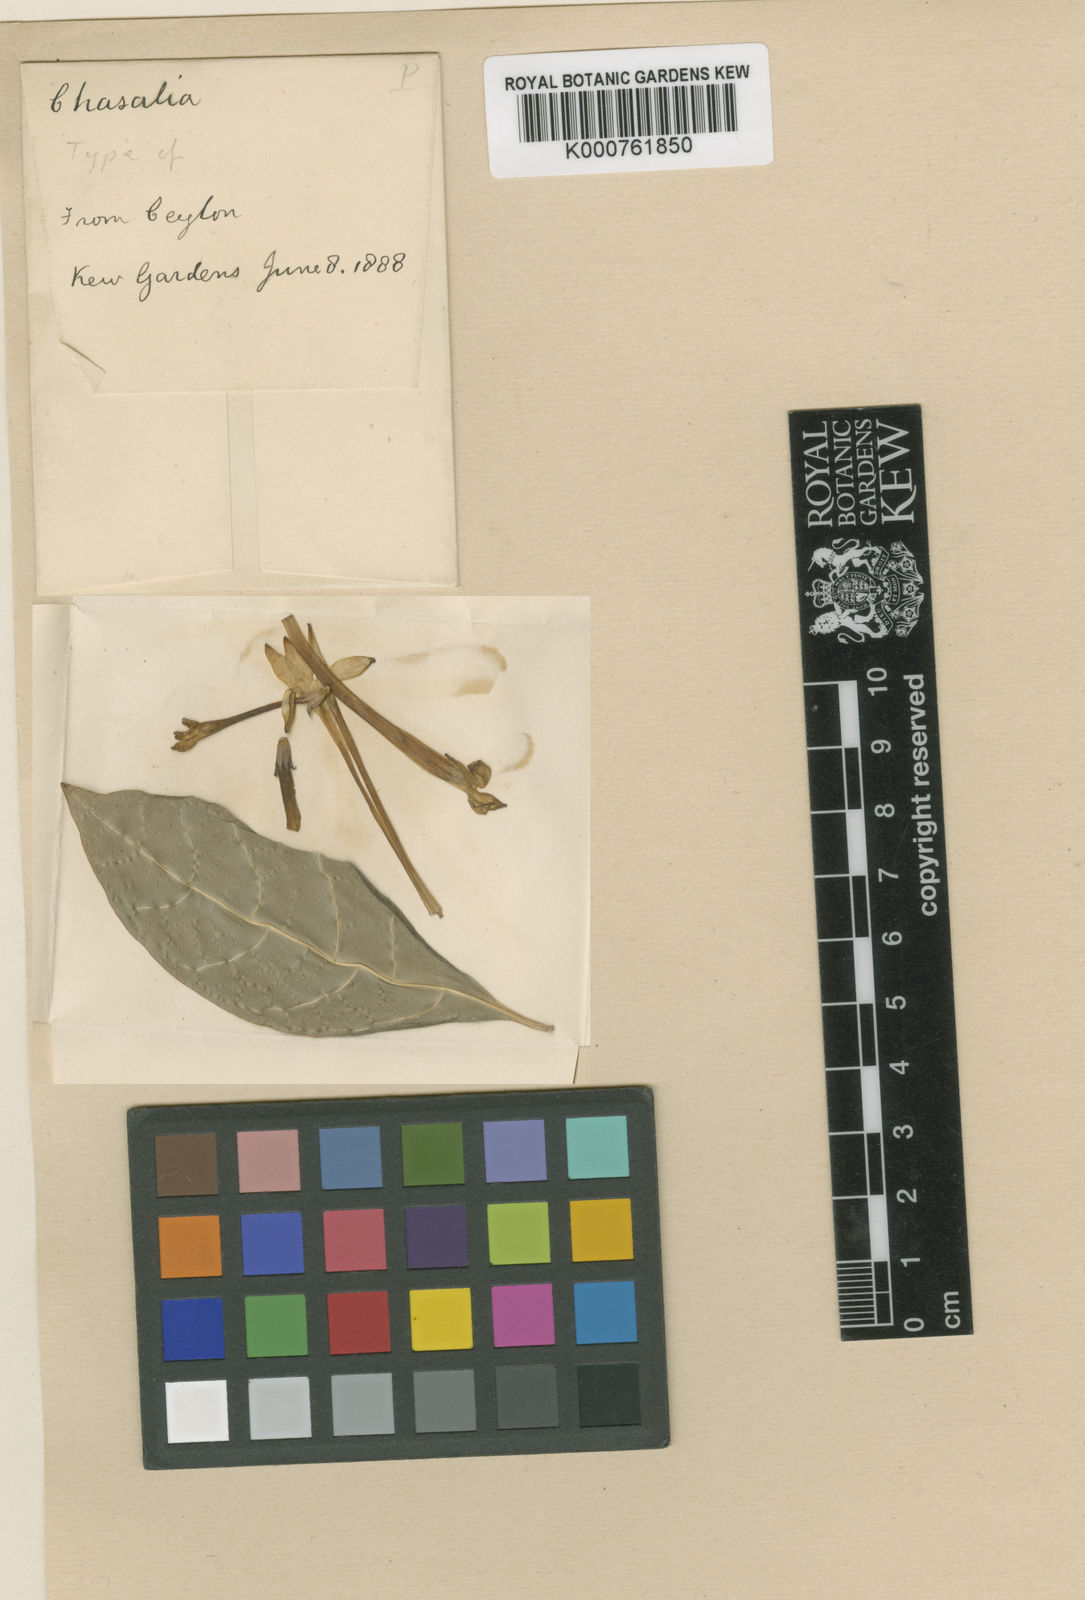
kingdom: Plantae
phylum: Tracheophyta
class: Magnoliopsida
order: Gentianales
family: Rubiaceae
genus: Chassalia
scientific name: Chassalia curviflora
